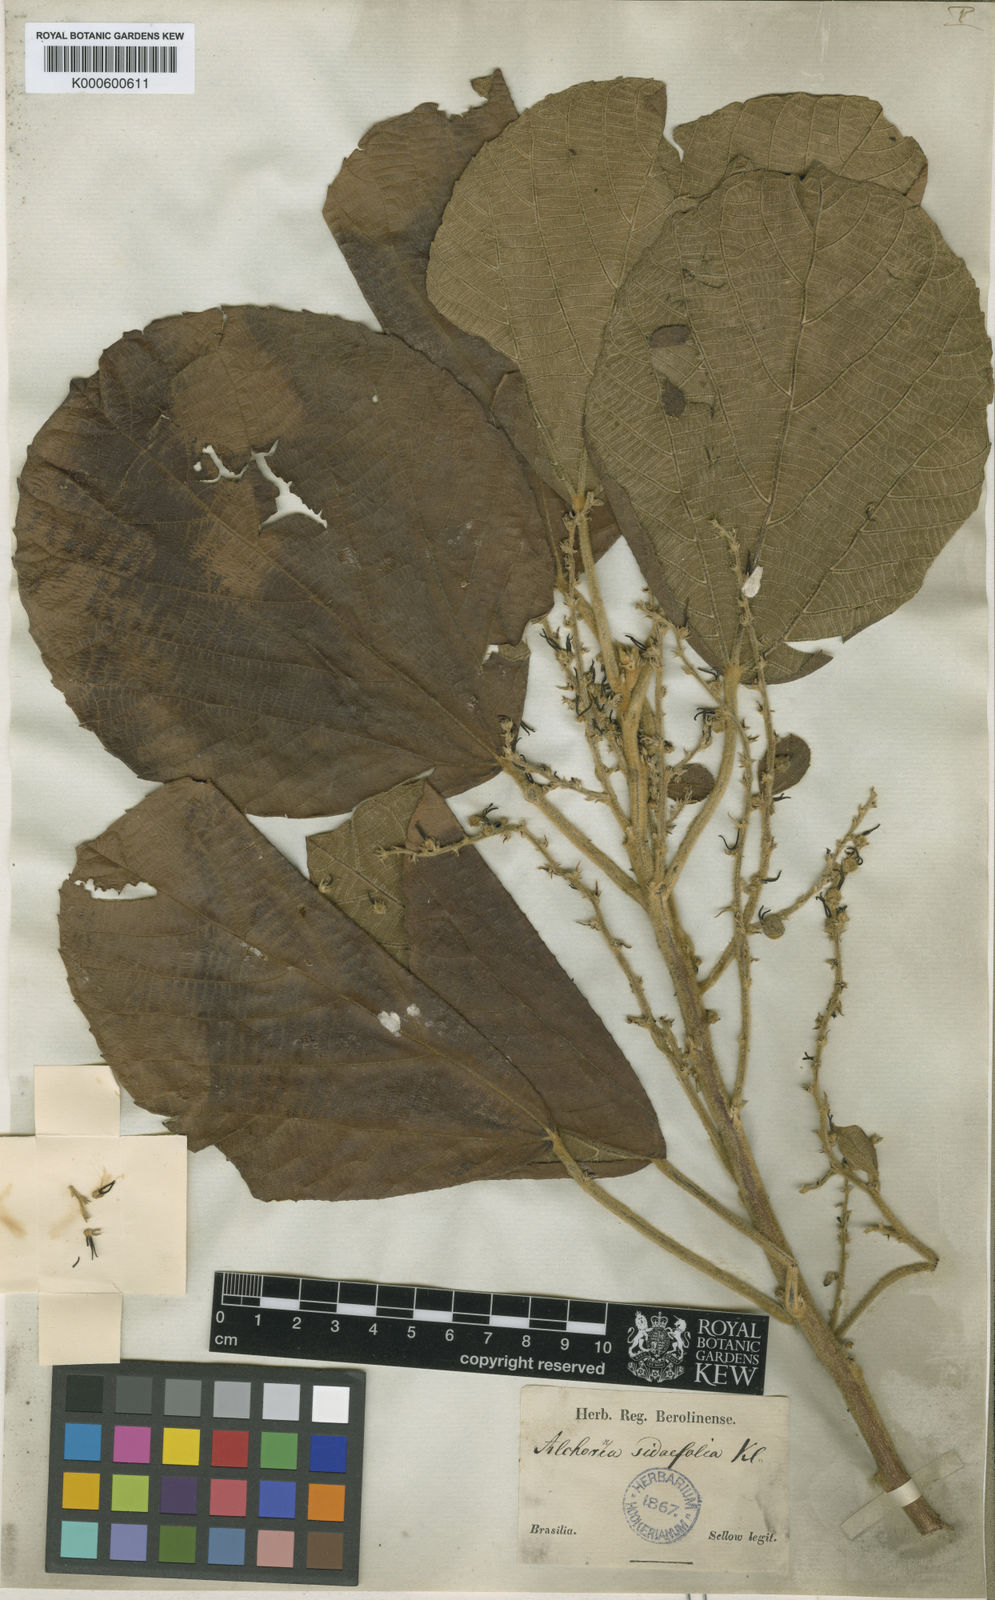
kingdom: Plantae
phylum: Tracheophyta
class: Magnoliopsida
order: Malpighiales
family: Euphorbiaceae
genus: Alchornea
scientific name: Alchornea
